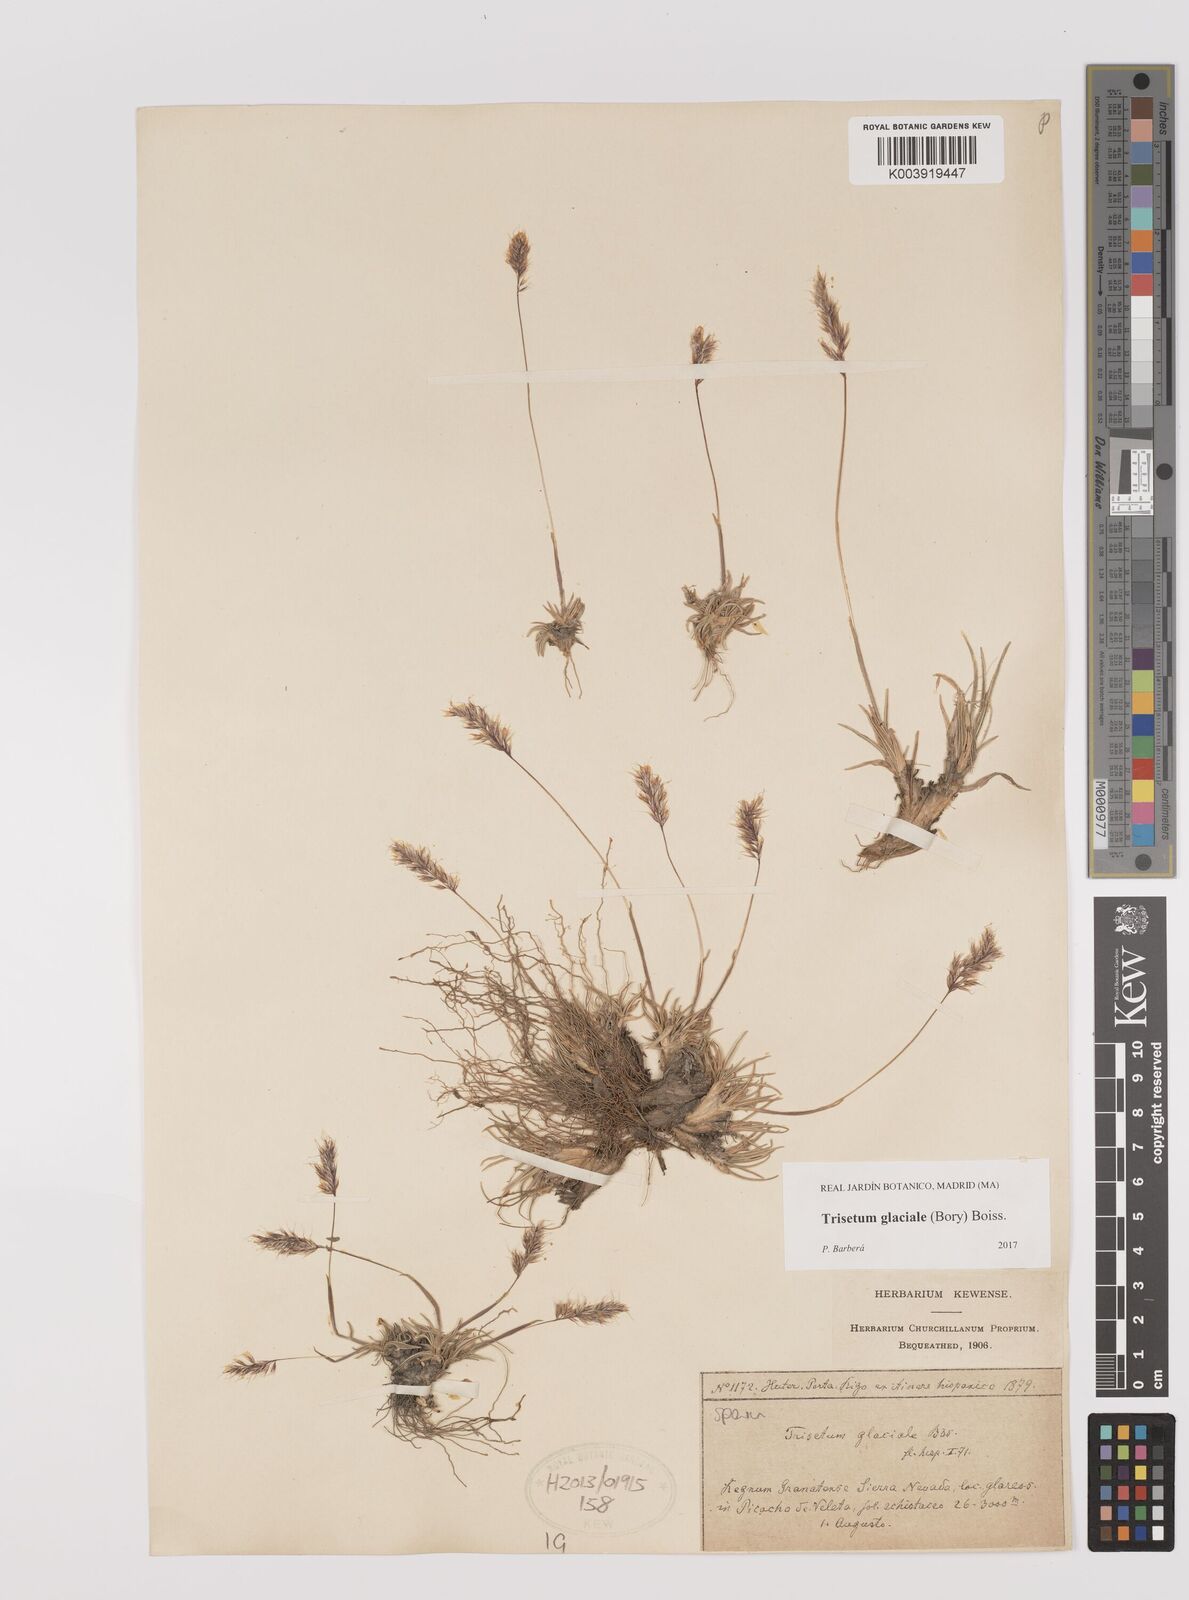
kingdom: Plantae
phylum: Tracheophyta
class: Liliopsida
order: Poales
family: Poaceae
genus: Acrospelion
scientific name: Acrospelion glaciale
